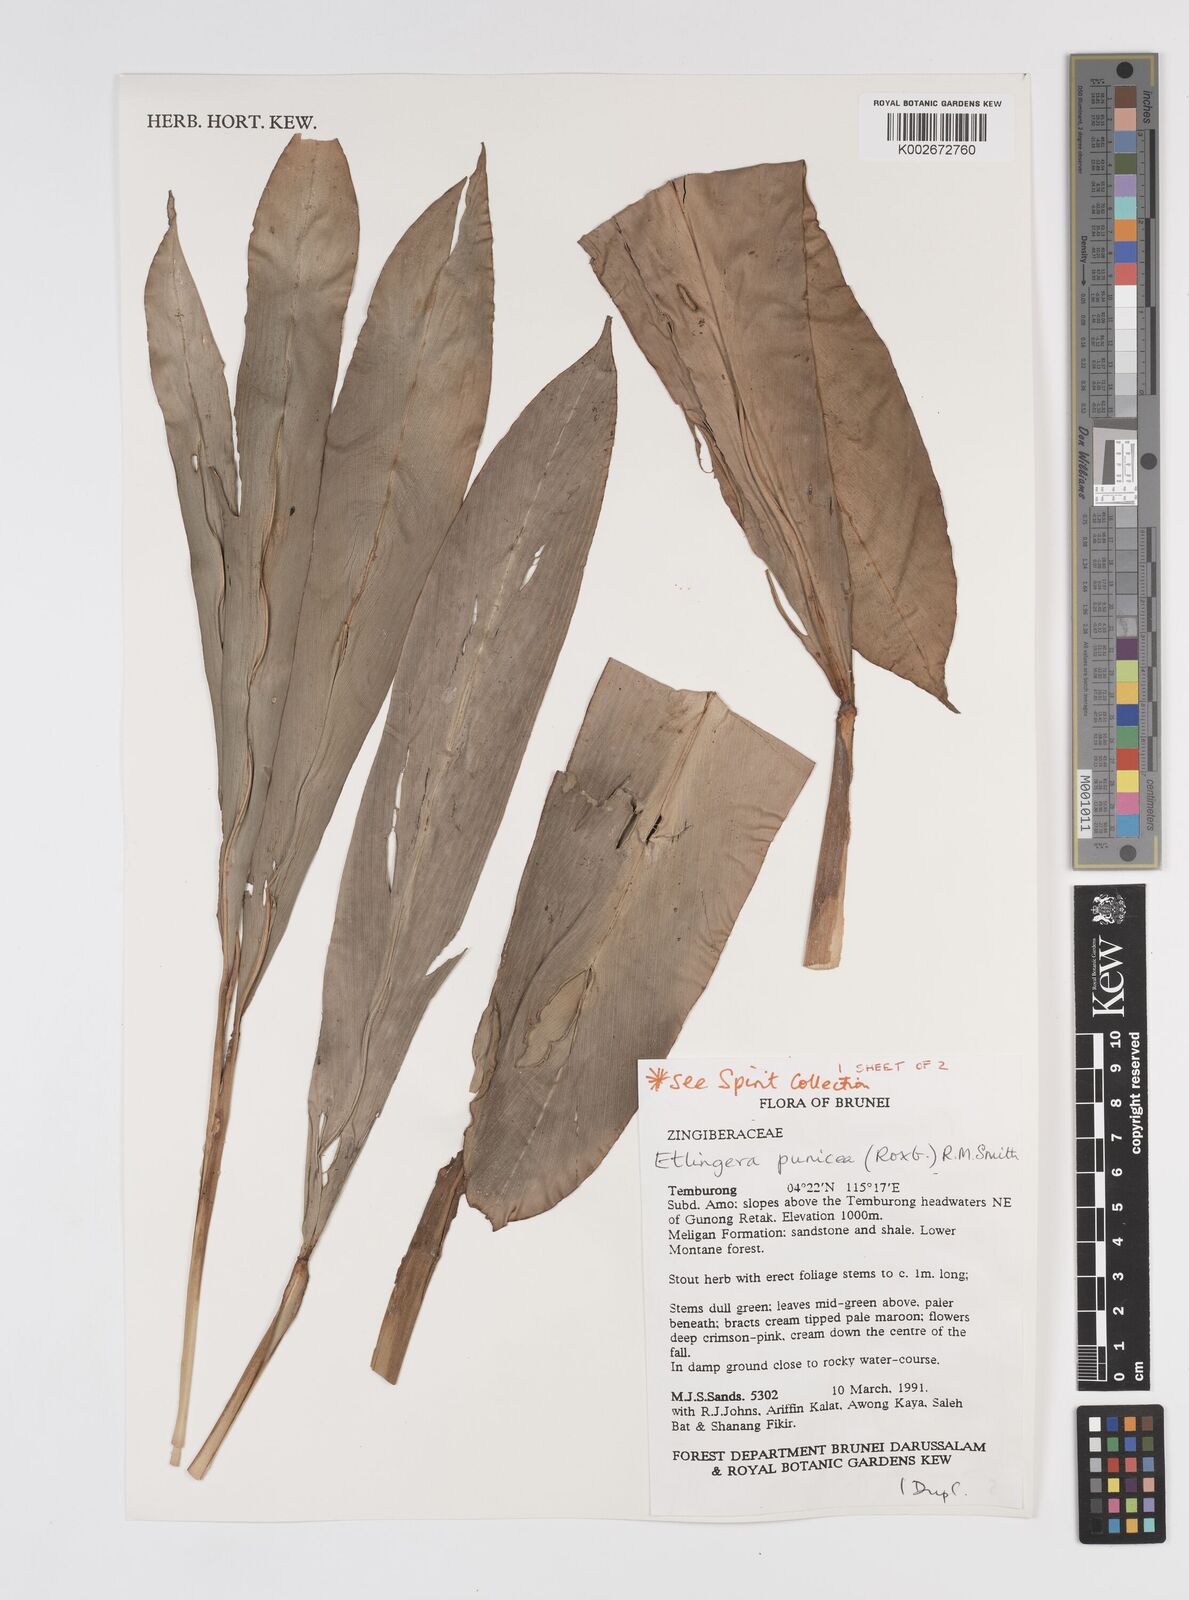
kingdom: Plantae
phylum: Tracheophyta
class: Liliopsida
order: Zingiberales
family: Zingiberaceae
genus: Etlingera
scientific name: Etlingera punicea
